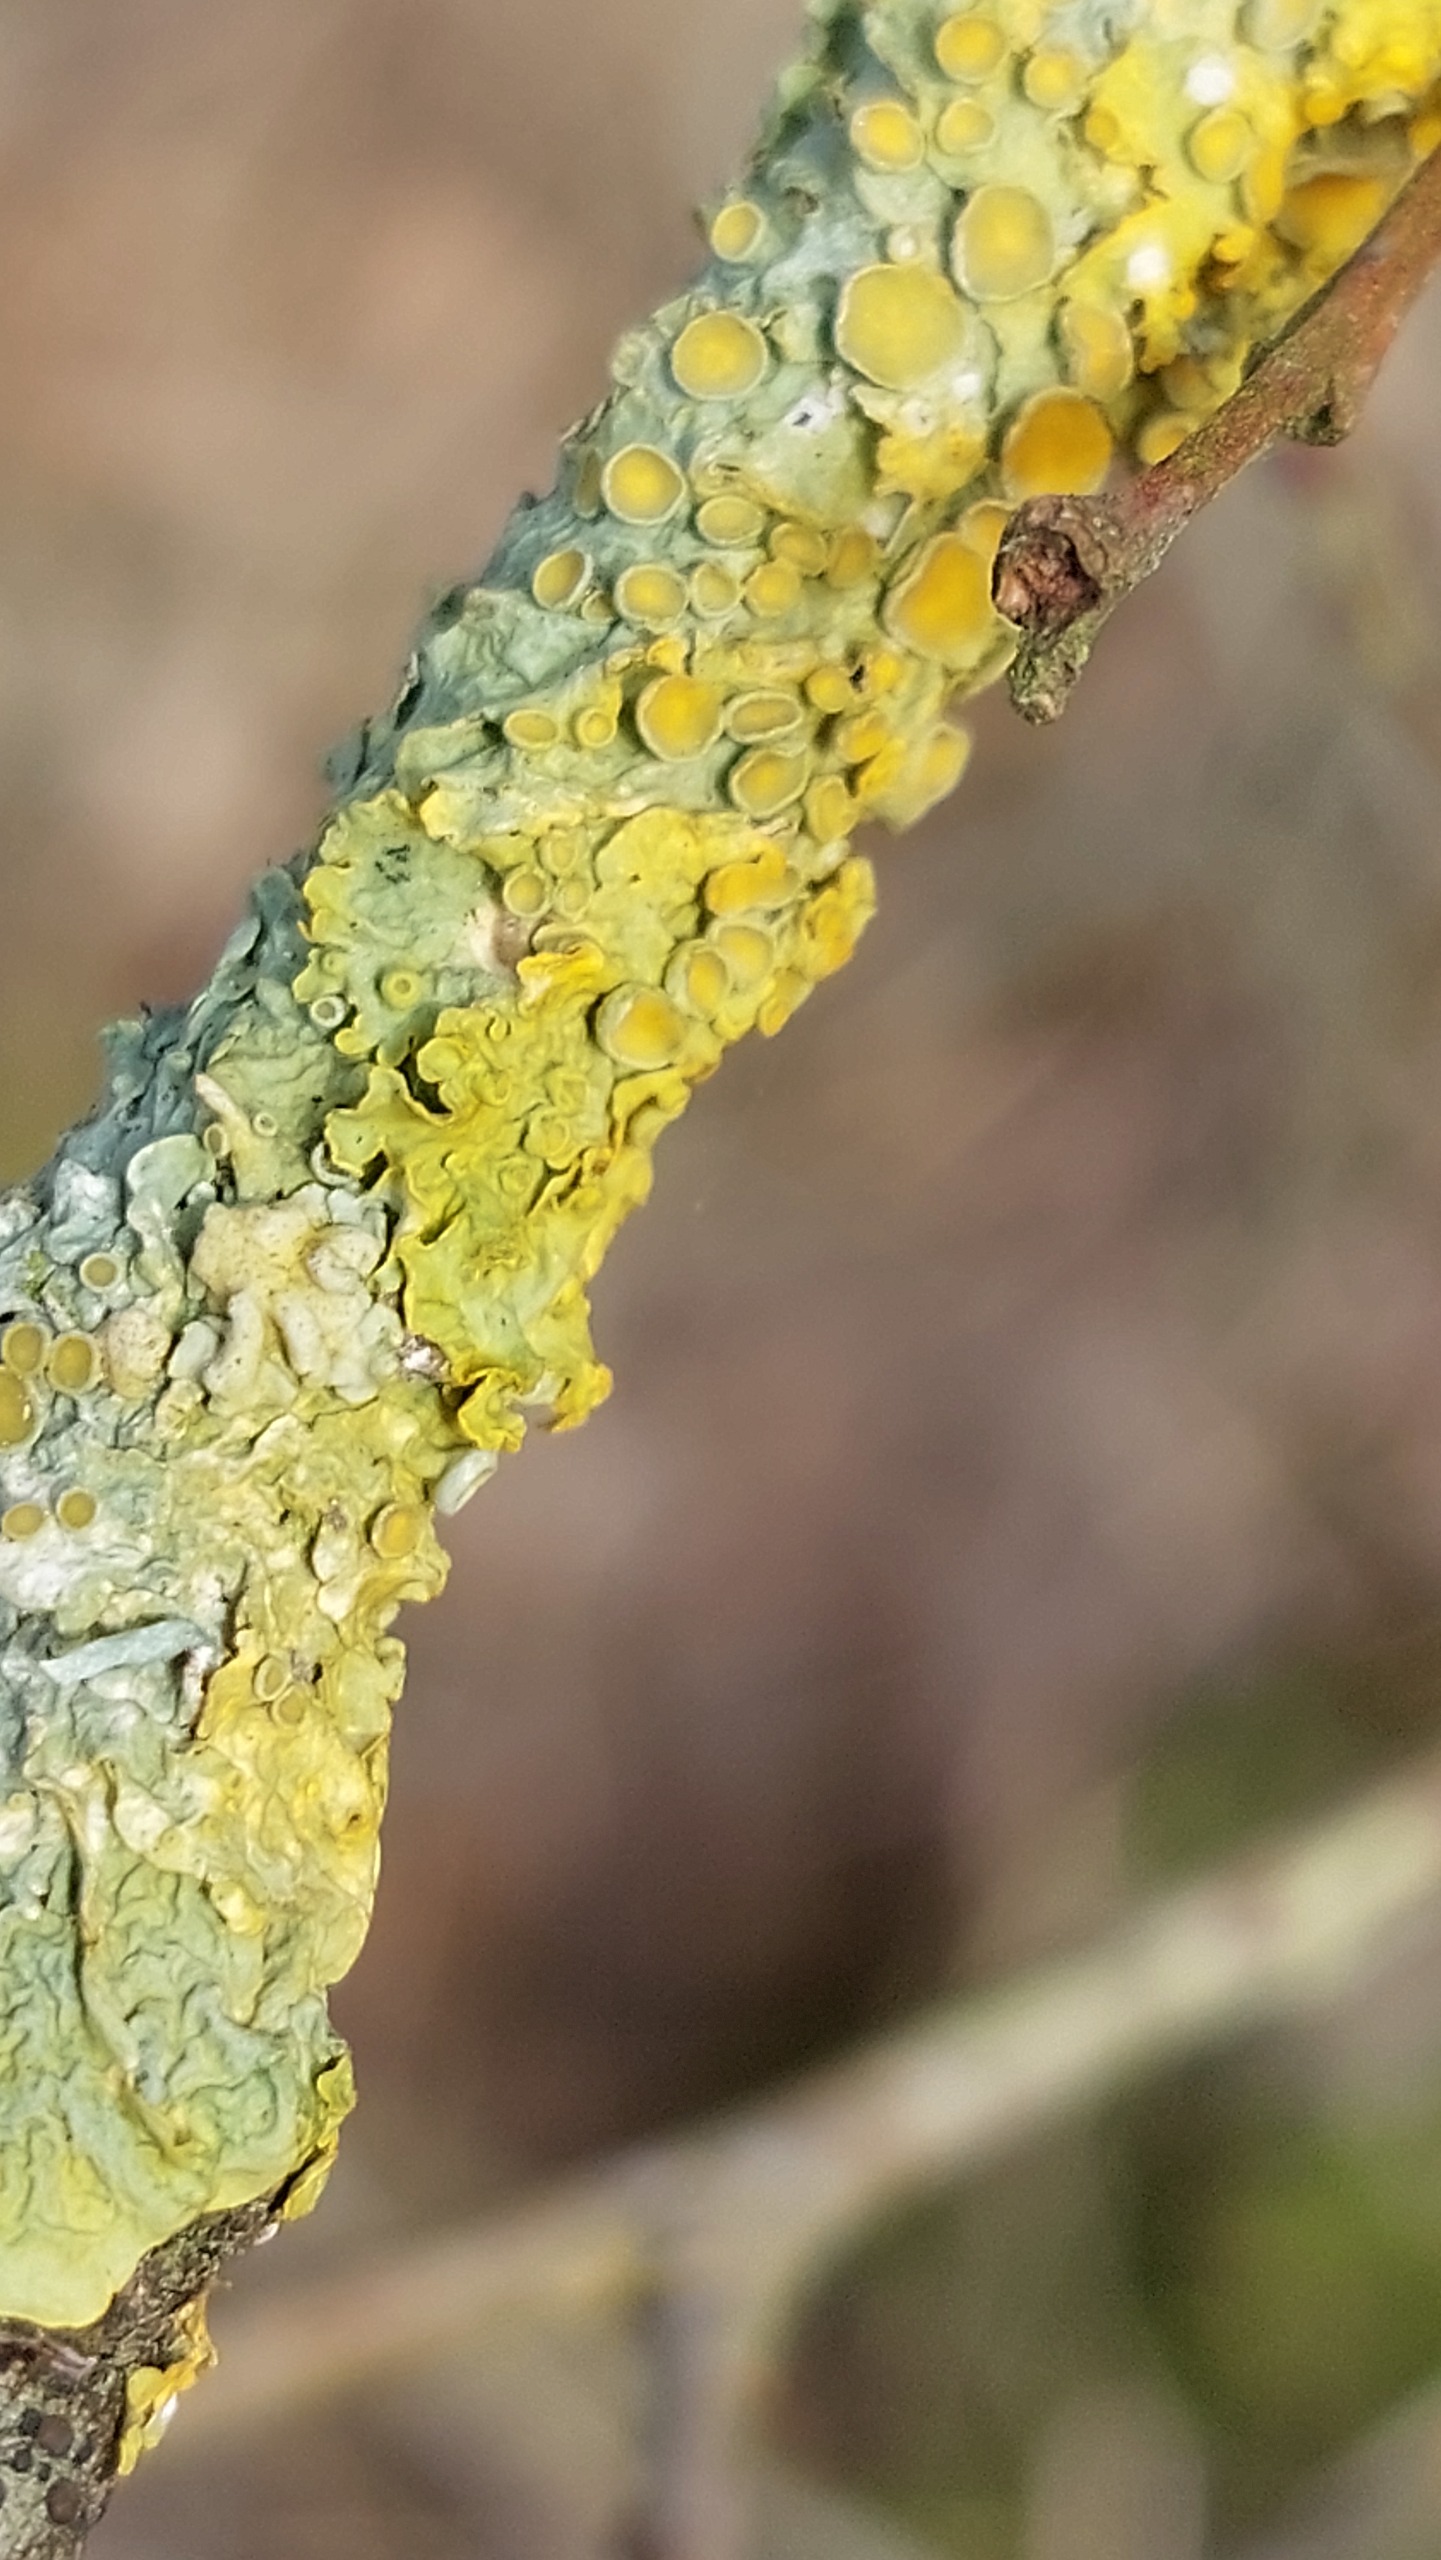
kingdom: Fungi
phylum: Ascomycota
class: Lecanoromycetes
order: Teloschistales
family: Teloschistaceae
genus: Xanthoria
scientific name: Xanthoria parietina
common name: Almindelig væggelav
